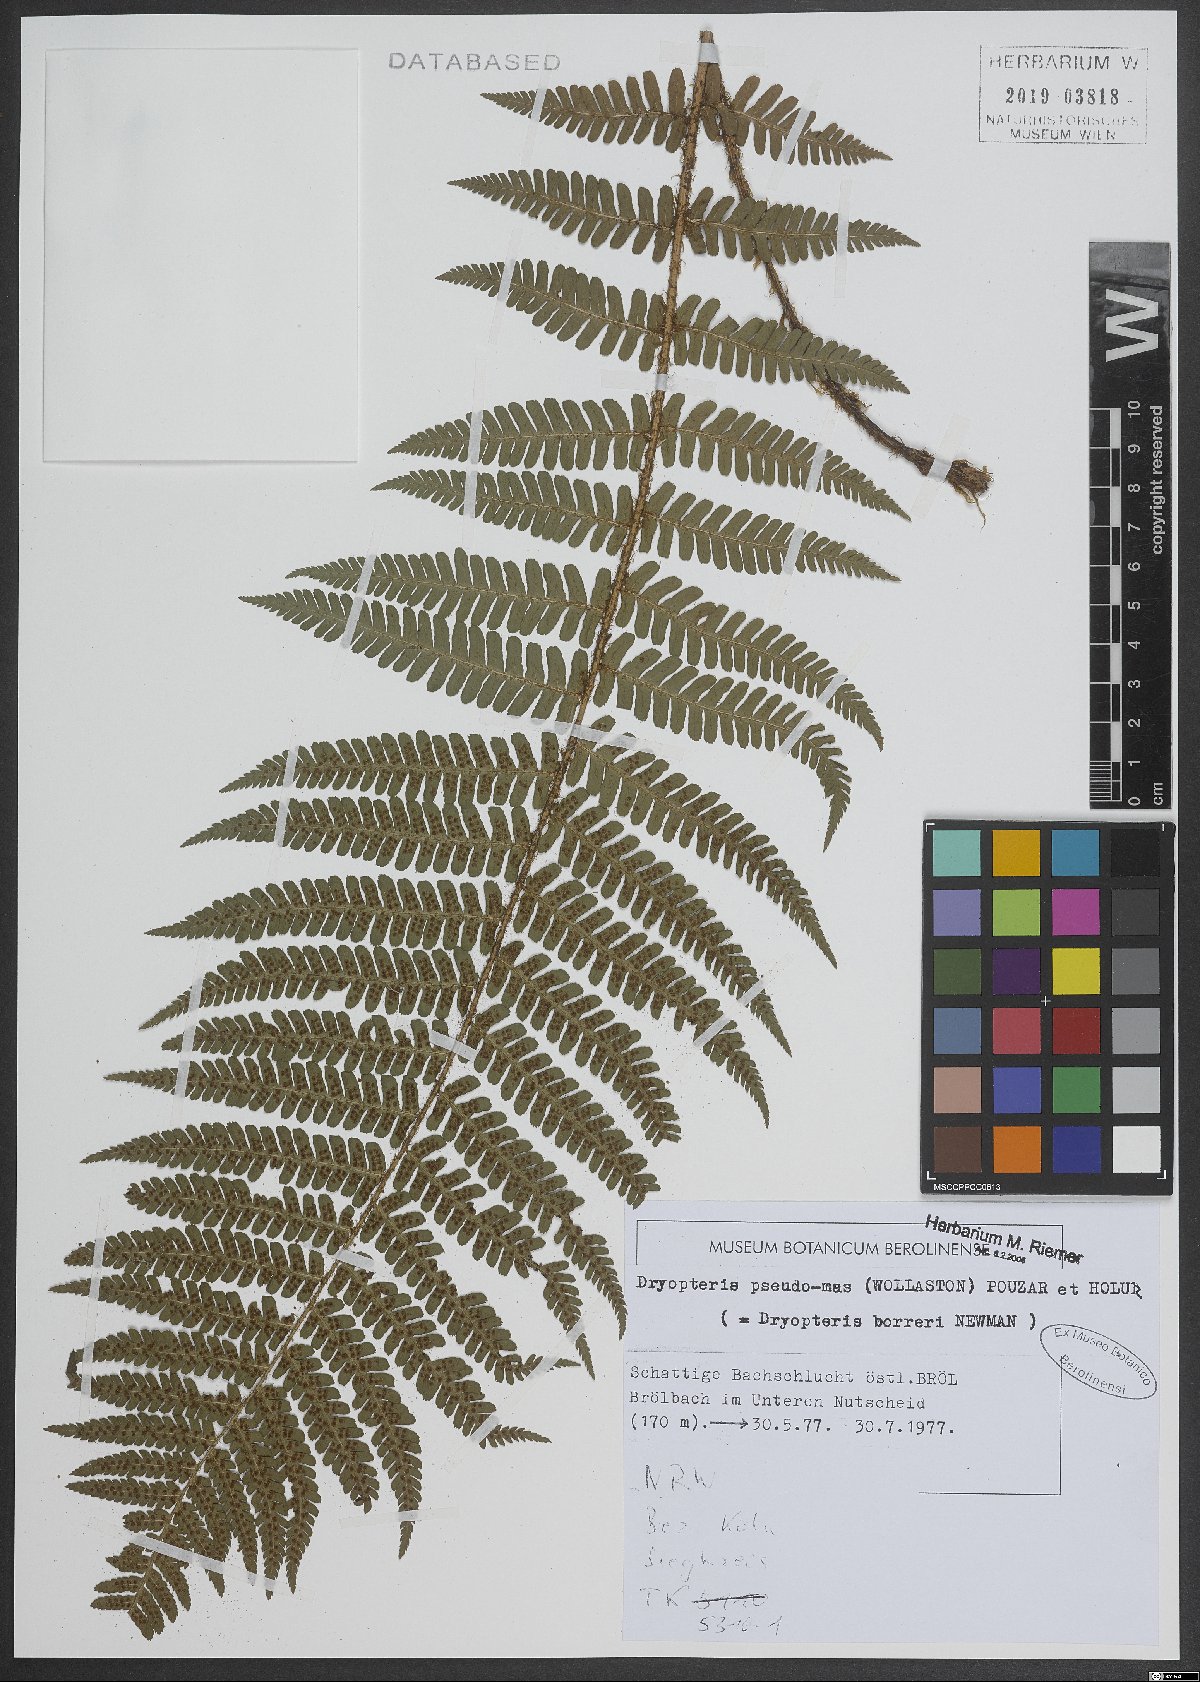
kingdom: Plantae
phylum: Tracheophyta
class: Polypodiopsida
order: Polypodiales
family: Dryopteridaceae
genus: Dryopteris
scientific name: Dryopteris affinis
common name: Scaly male fern
